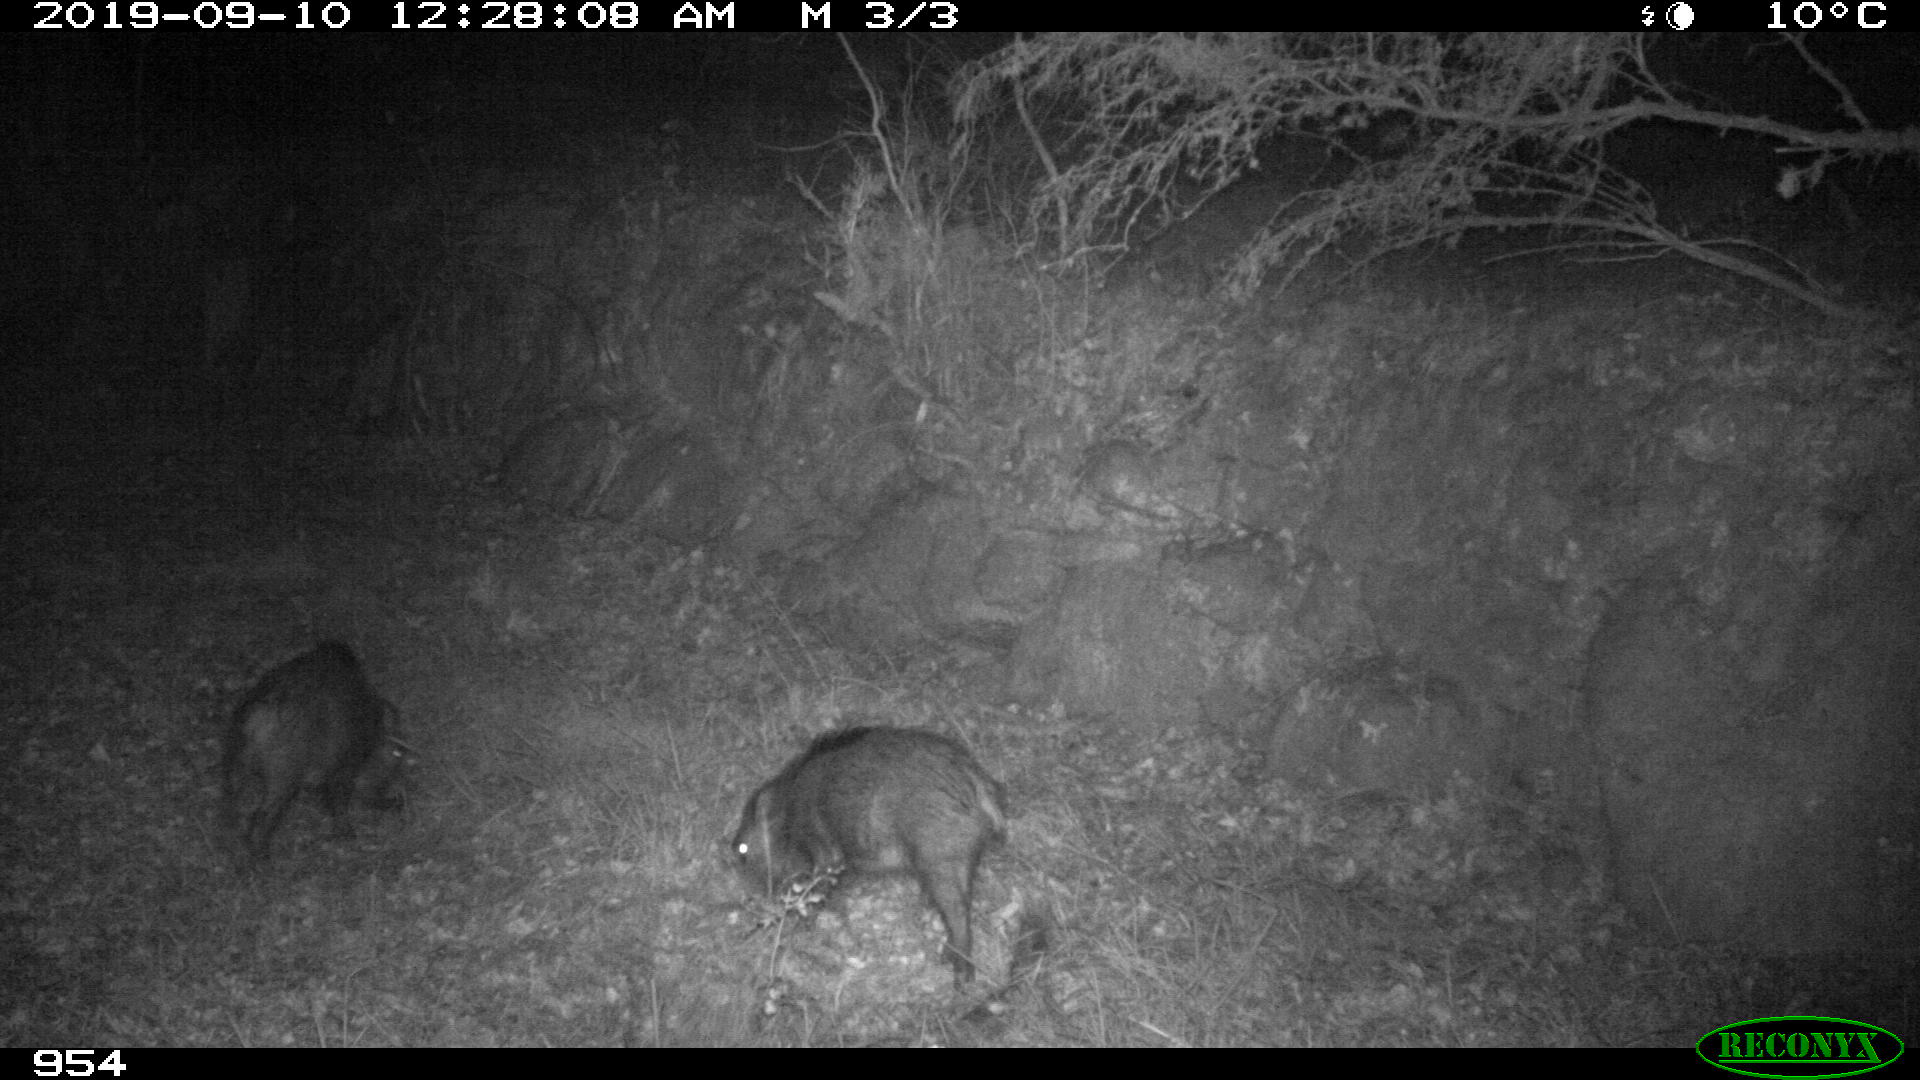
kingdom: Animalia
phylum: Chordata
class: Mammalia
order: Artiodactyla
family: Suidae
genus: Sus
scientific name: Sus scrofa
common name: Wild boar
